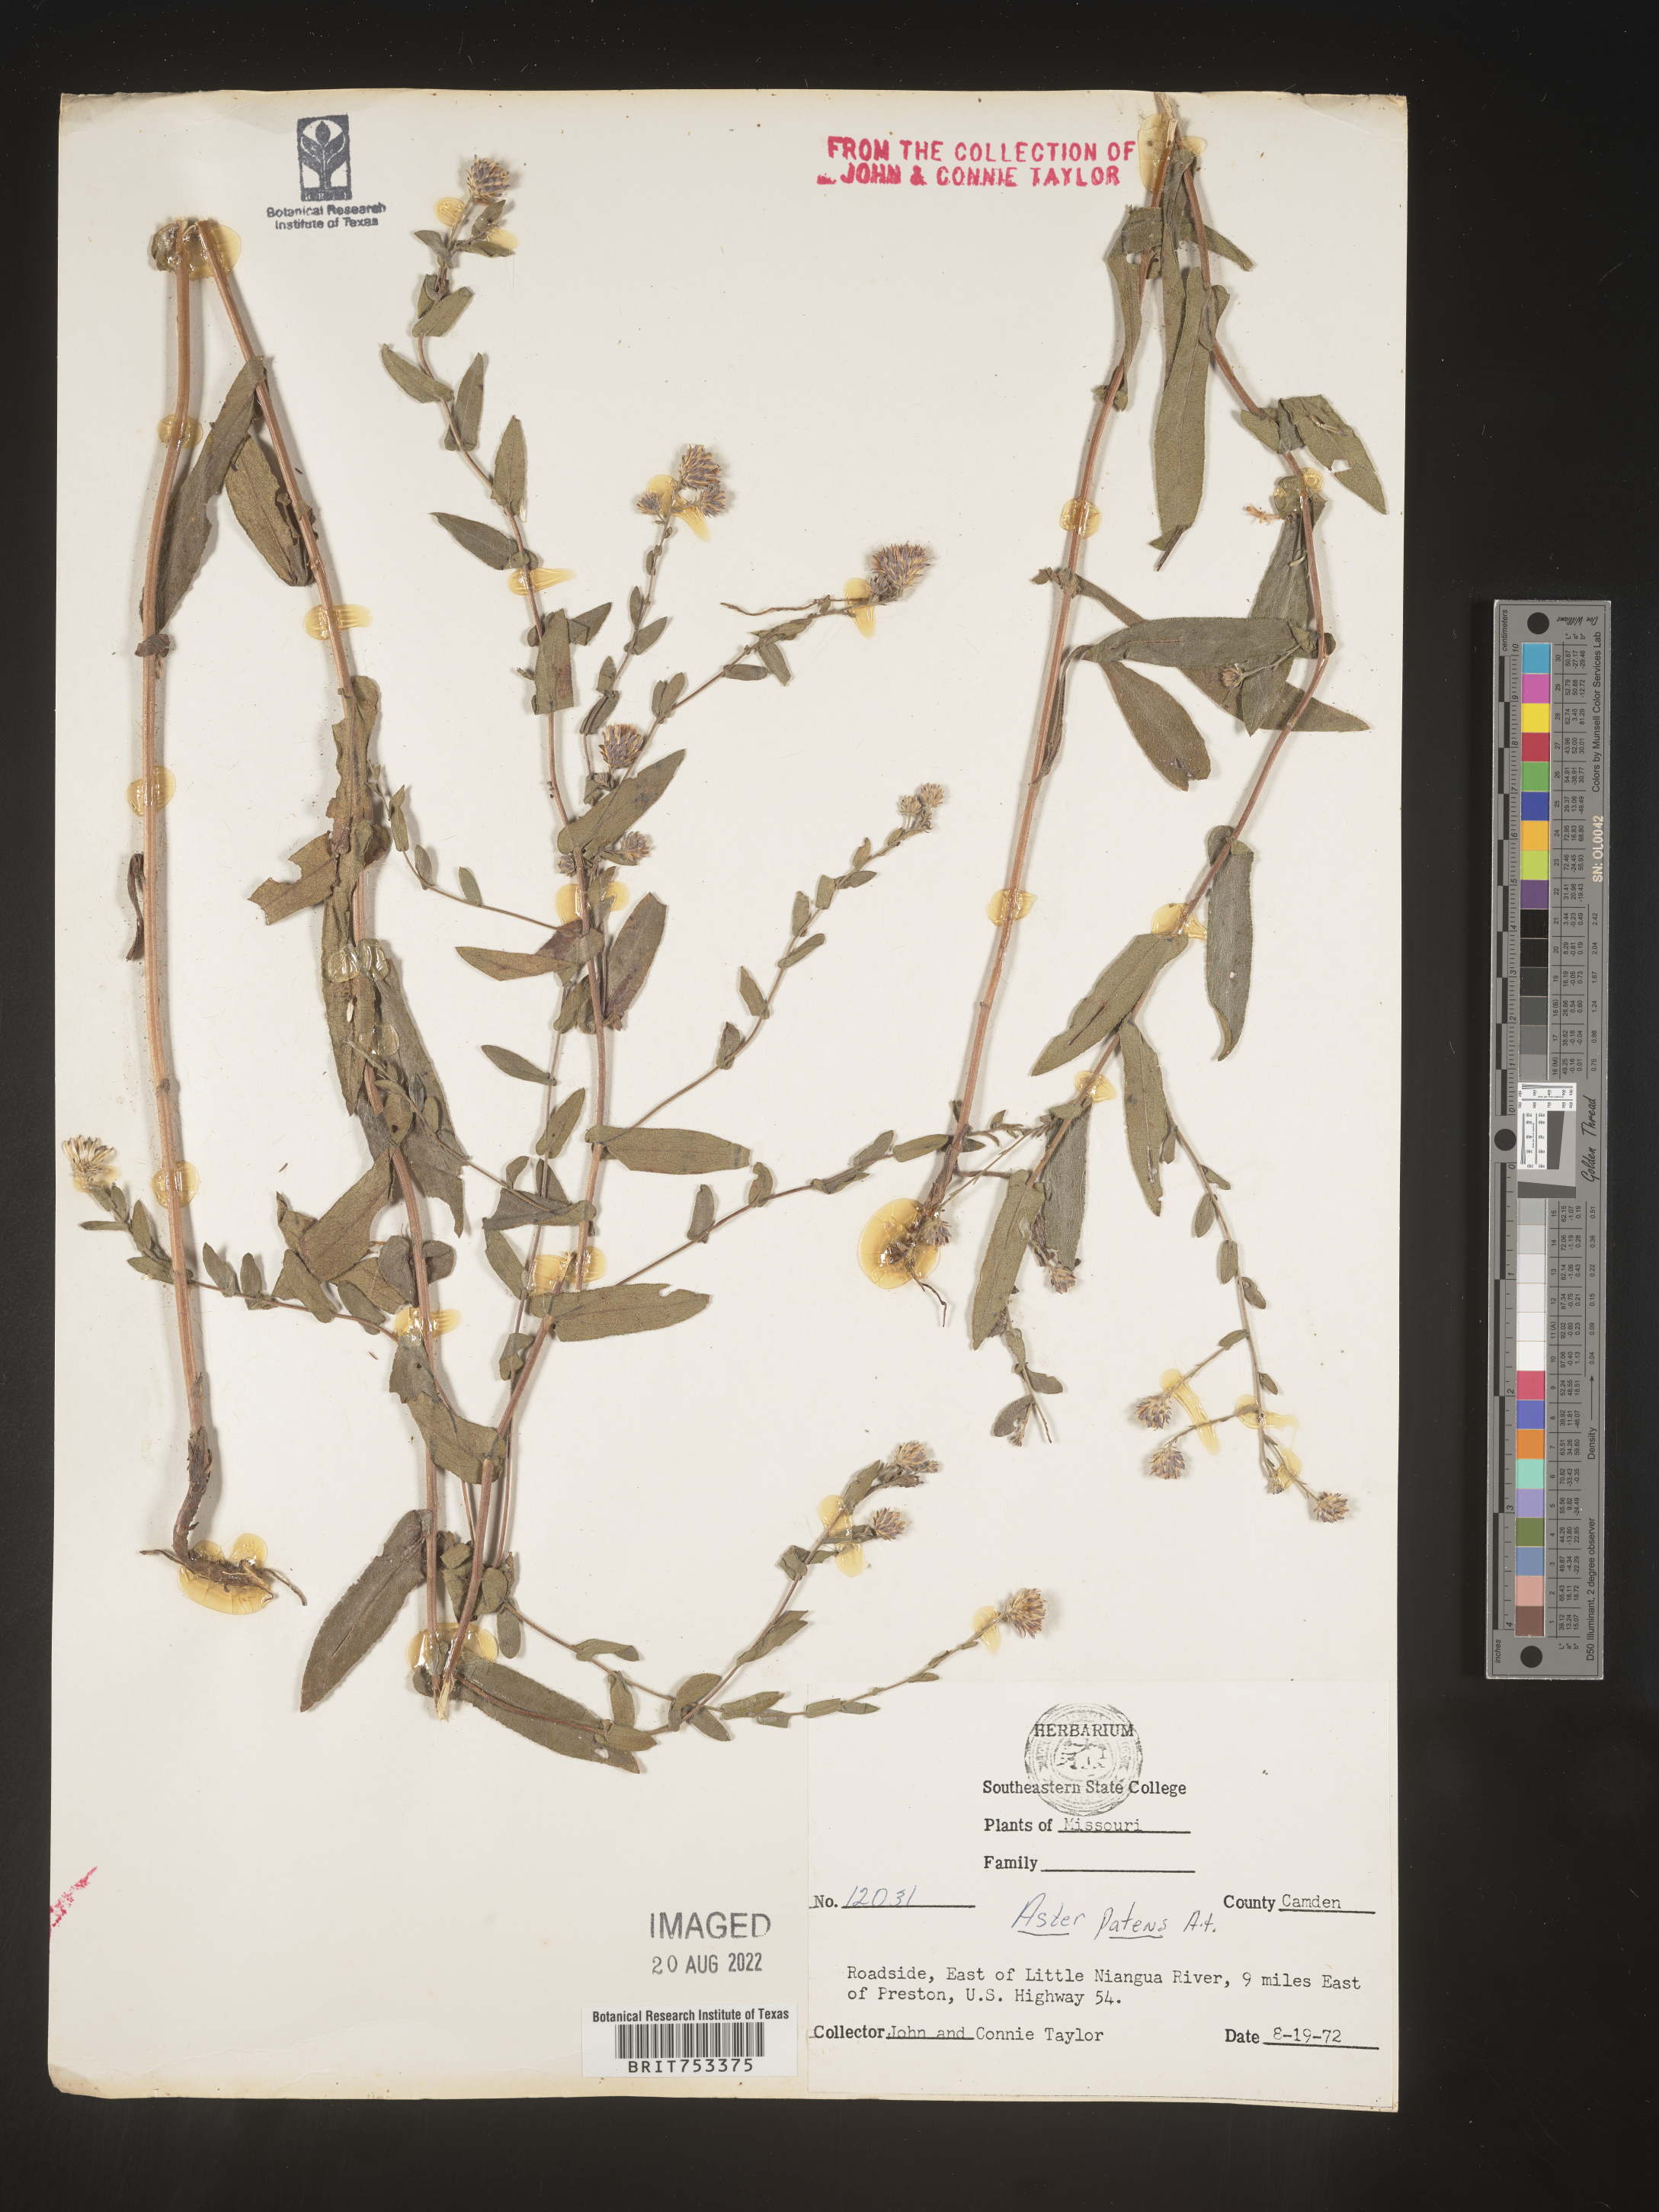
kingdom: Plantae
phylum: Tracheophyta
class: Magnoliopsida
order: Asterales
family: Asteraceae
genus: Symphyotrichum
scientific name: Symphyotrichum patens
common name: Late purple aster
